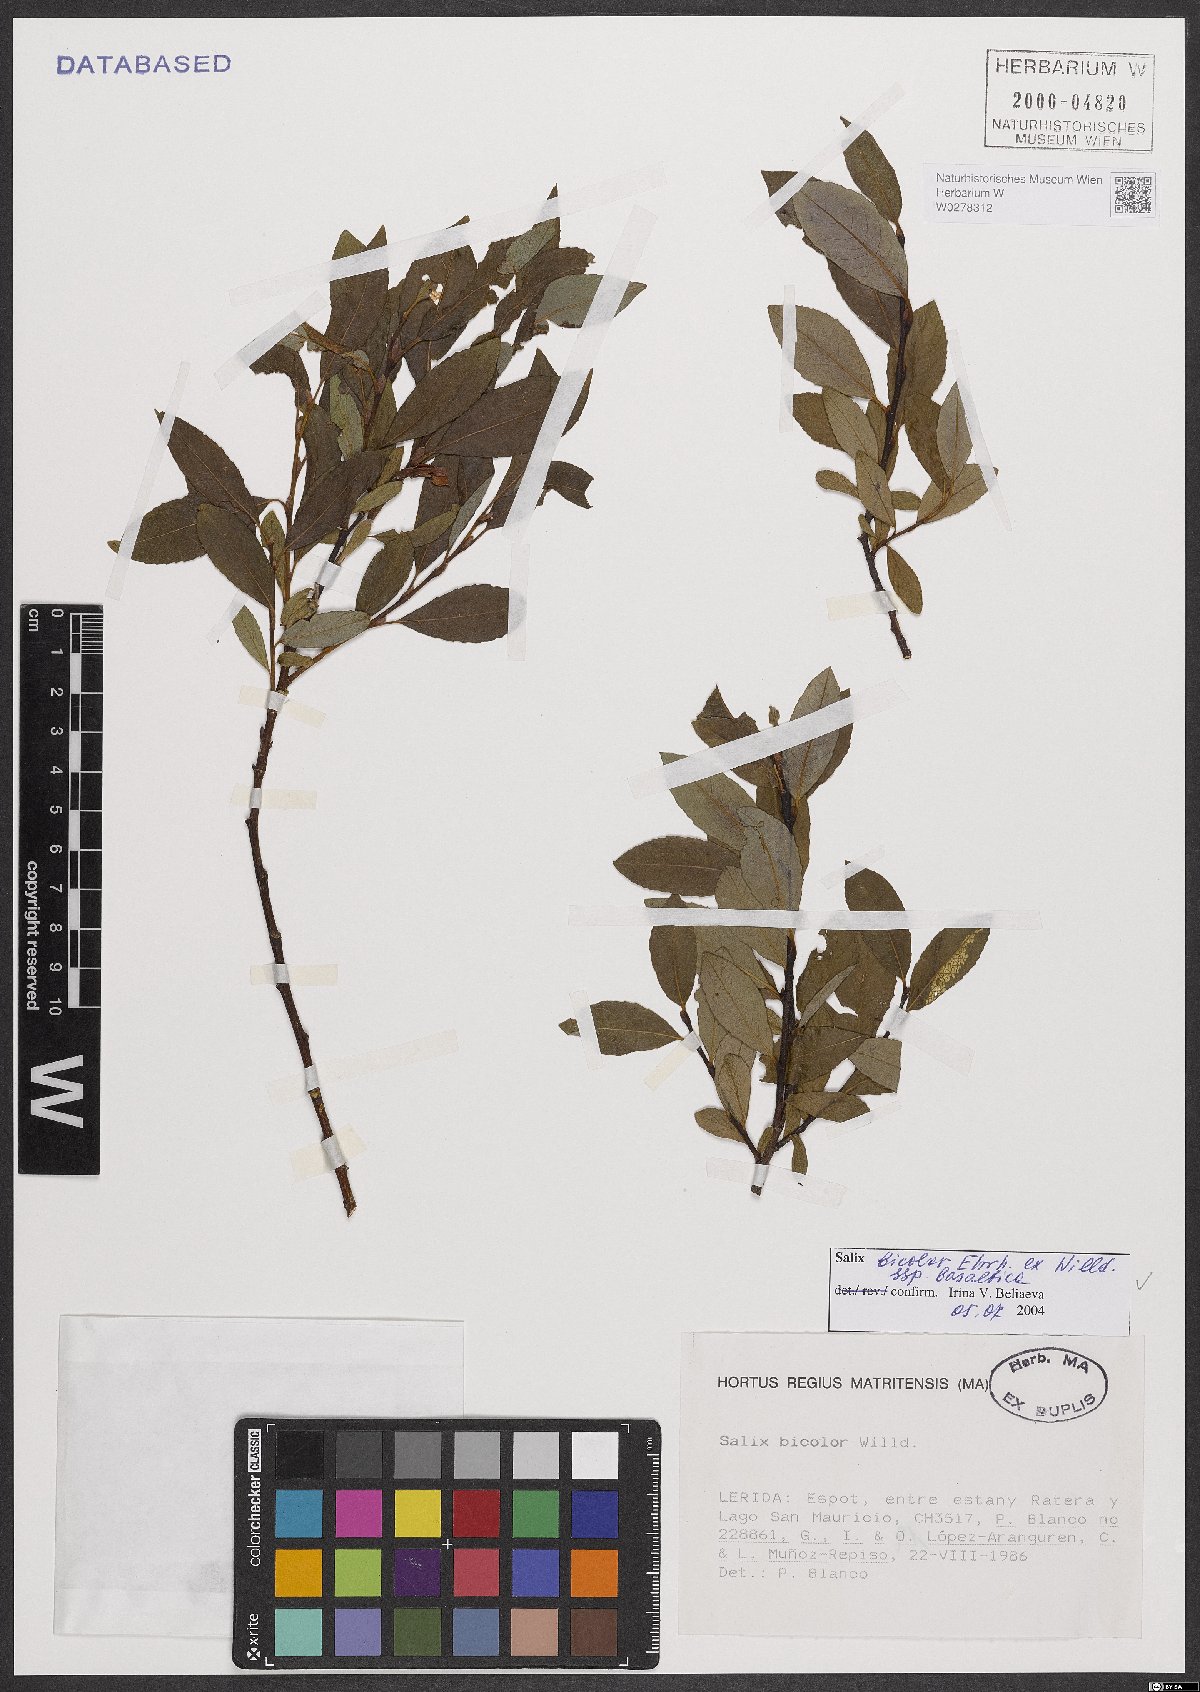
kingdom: Plantae
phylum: Tracheophyta
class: Magnoliopsida
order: Malpighiales
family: Salicaceae
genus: Salix
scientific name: Salix basaltica
